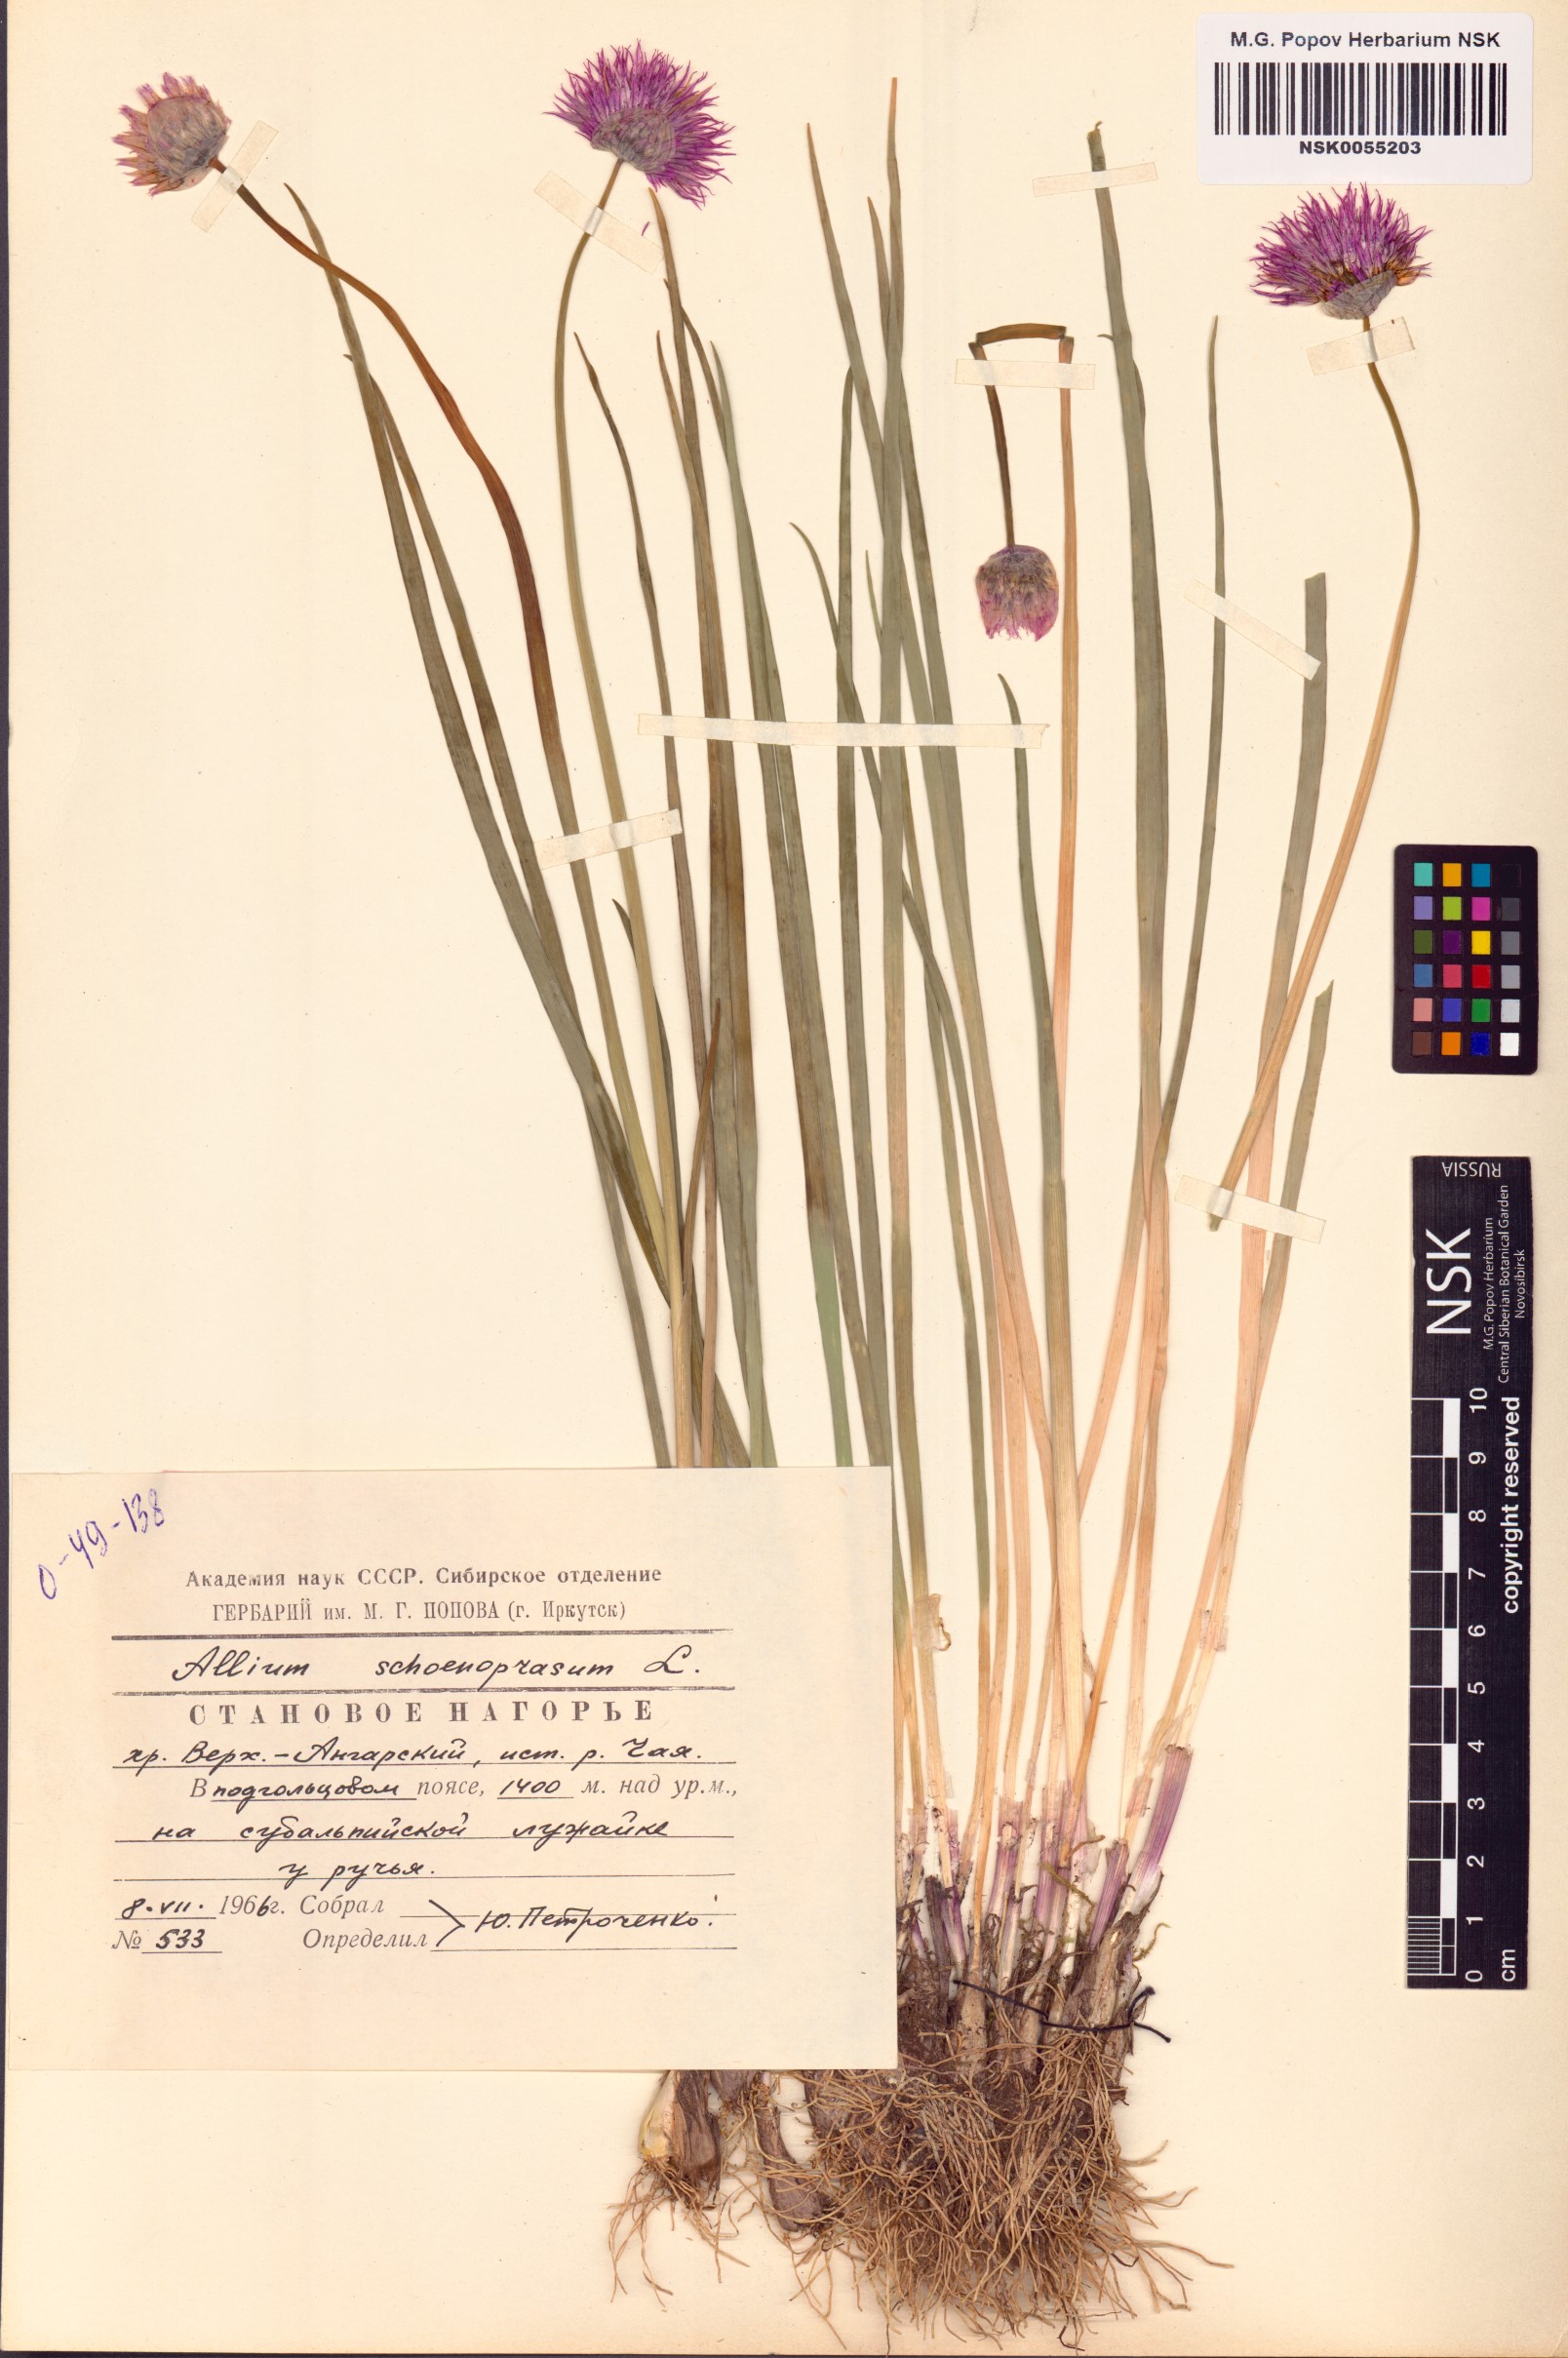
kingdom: Plantae
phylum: Tracheophyta
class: Liliopsida
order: Asparagales
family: Amaryllidaceae
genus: Allium
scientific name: Allium schoenoprasum
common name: Chives
